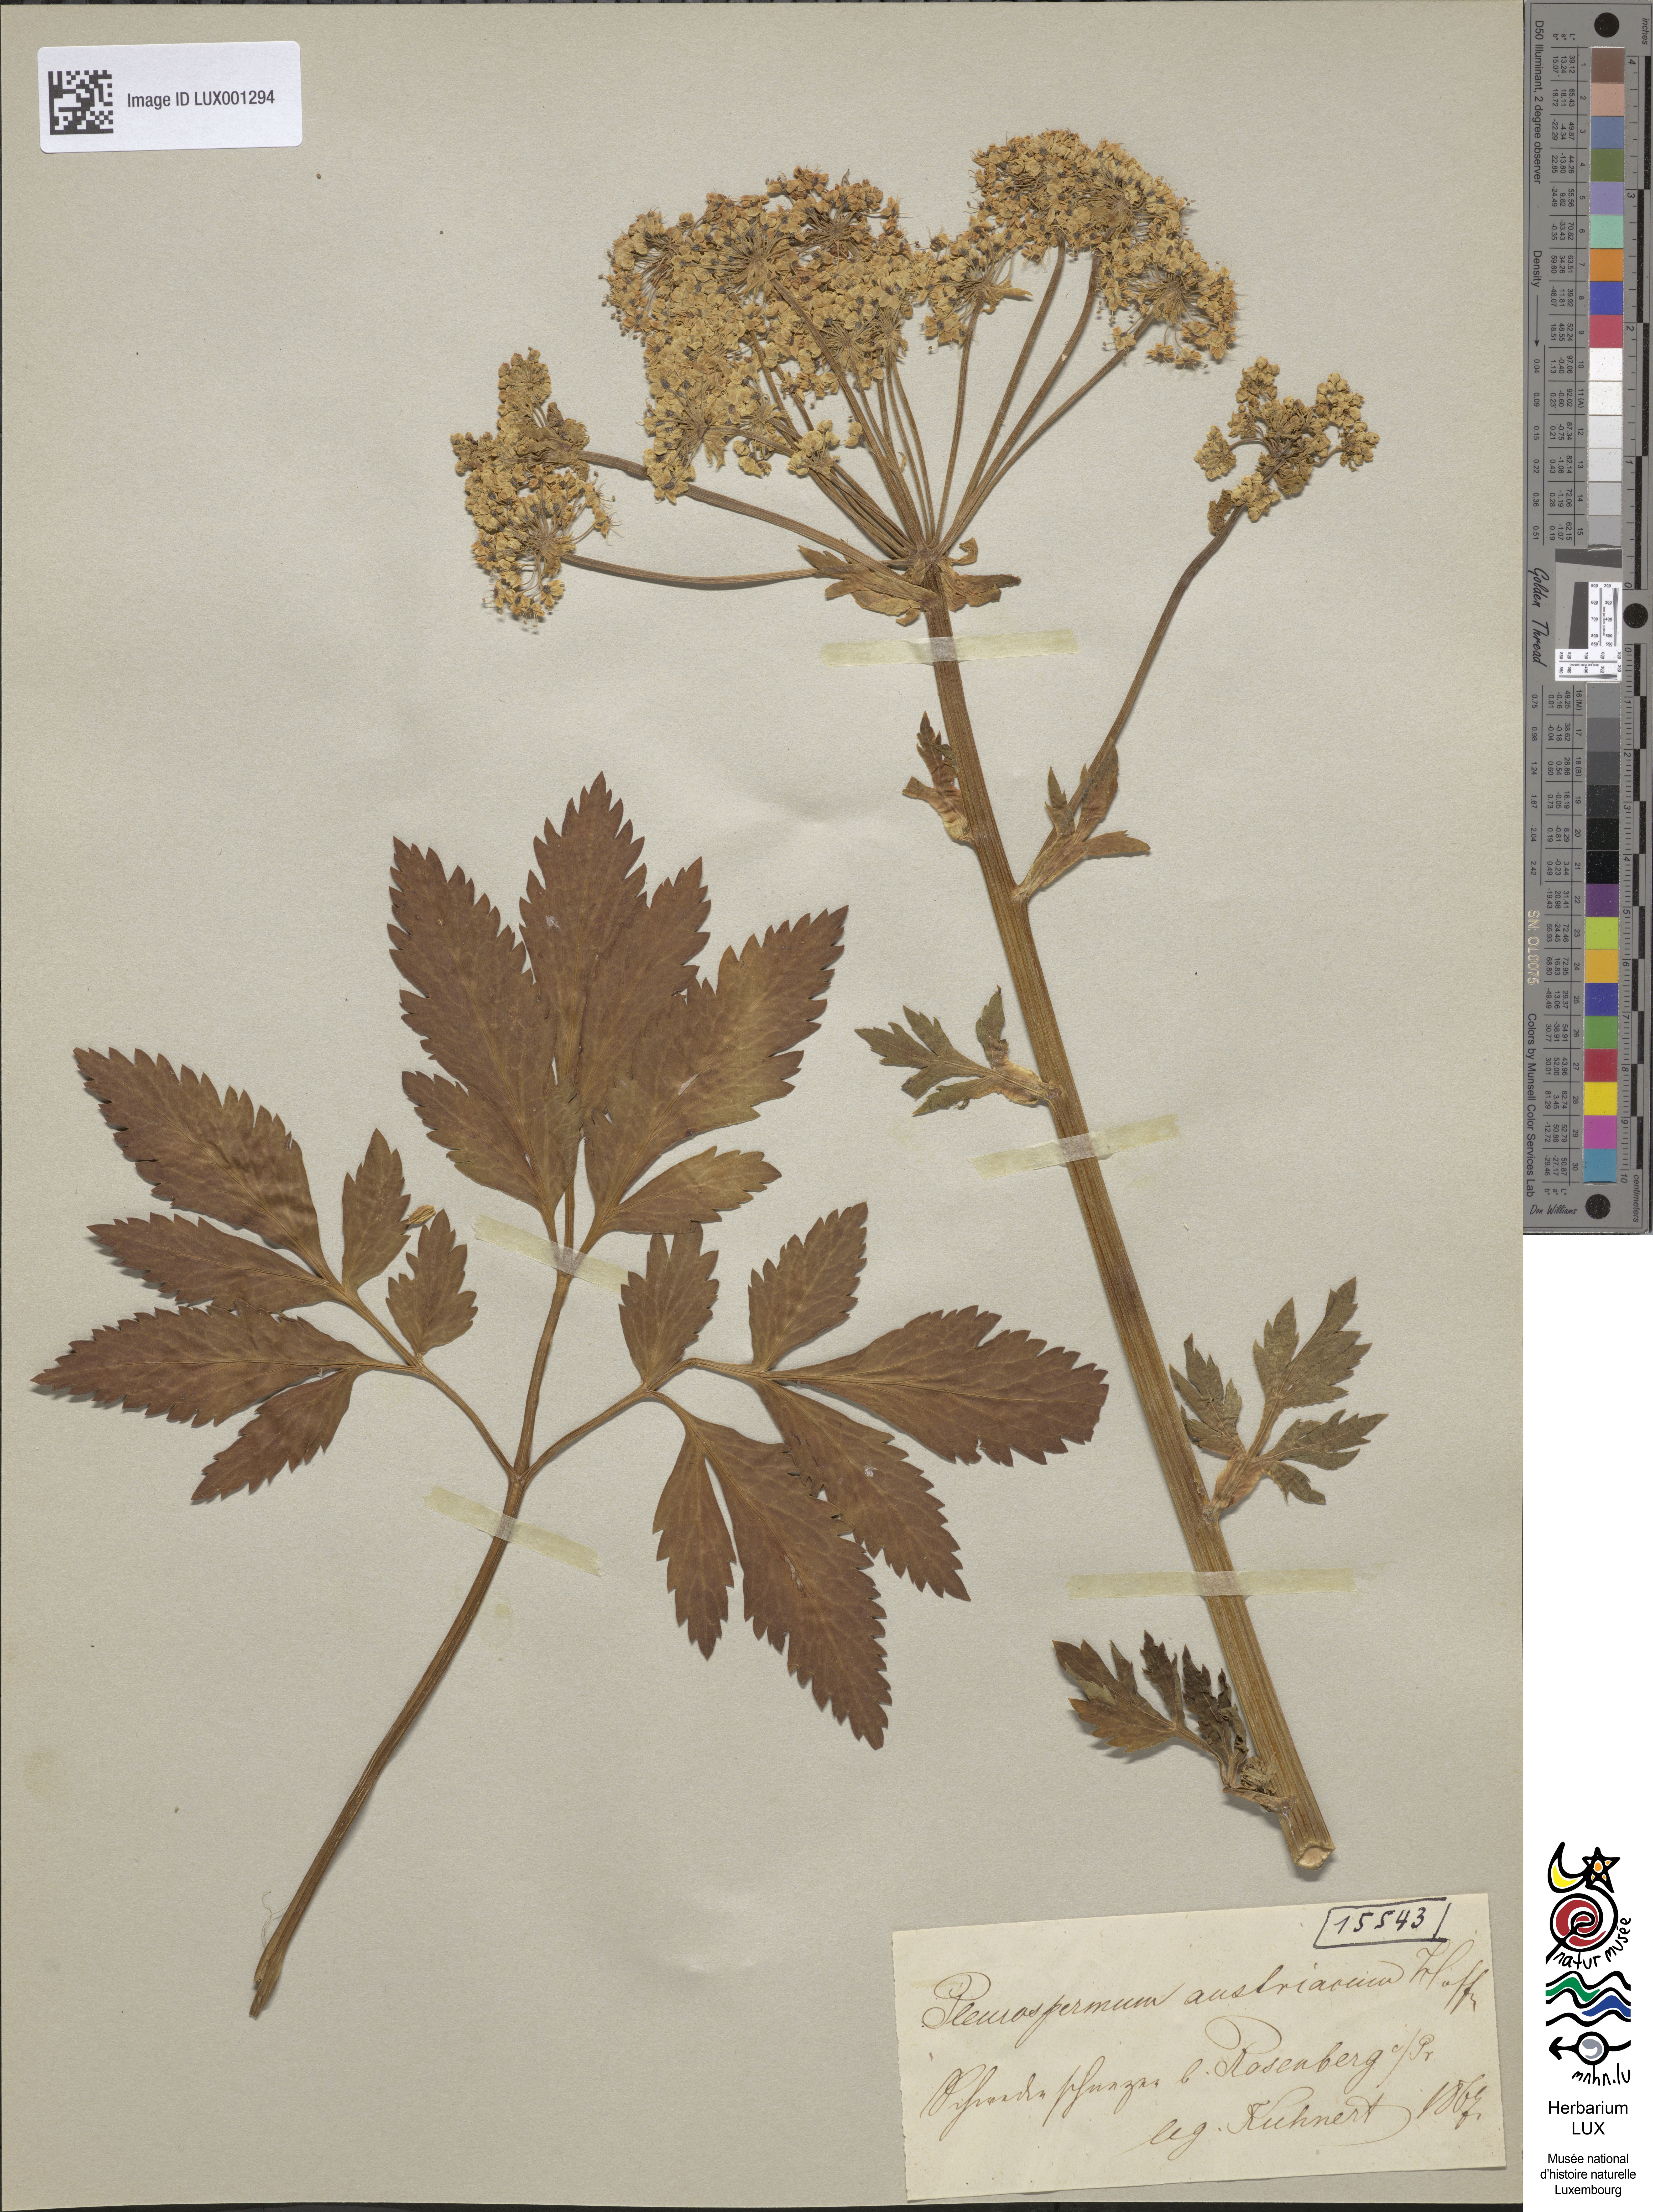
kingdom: Plantae
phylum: Tracheophyta
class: Magnoliopsida
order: Apiales
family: Apiaceae
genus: Pleurospermum
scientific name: Pleurospermum austriacum
